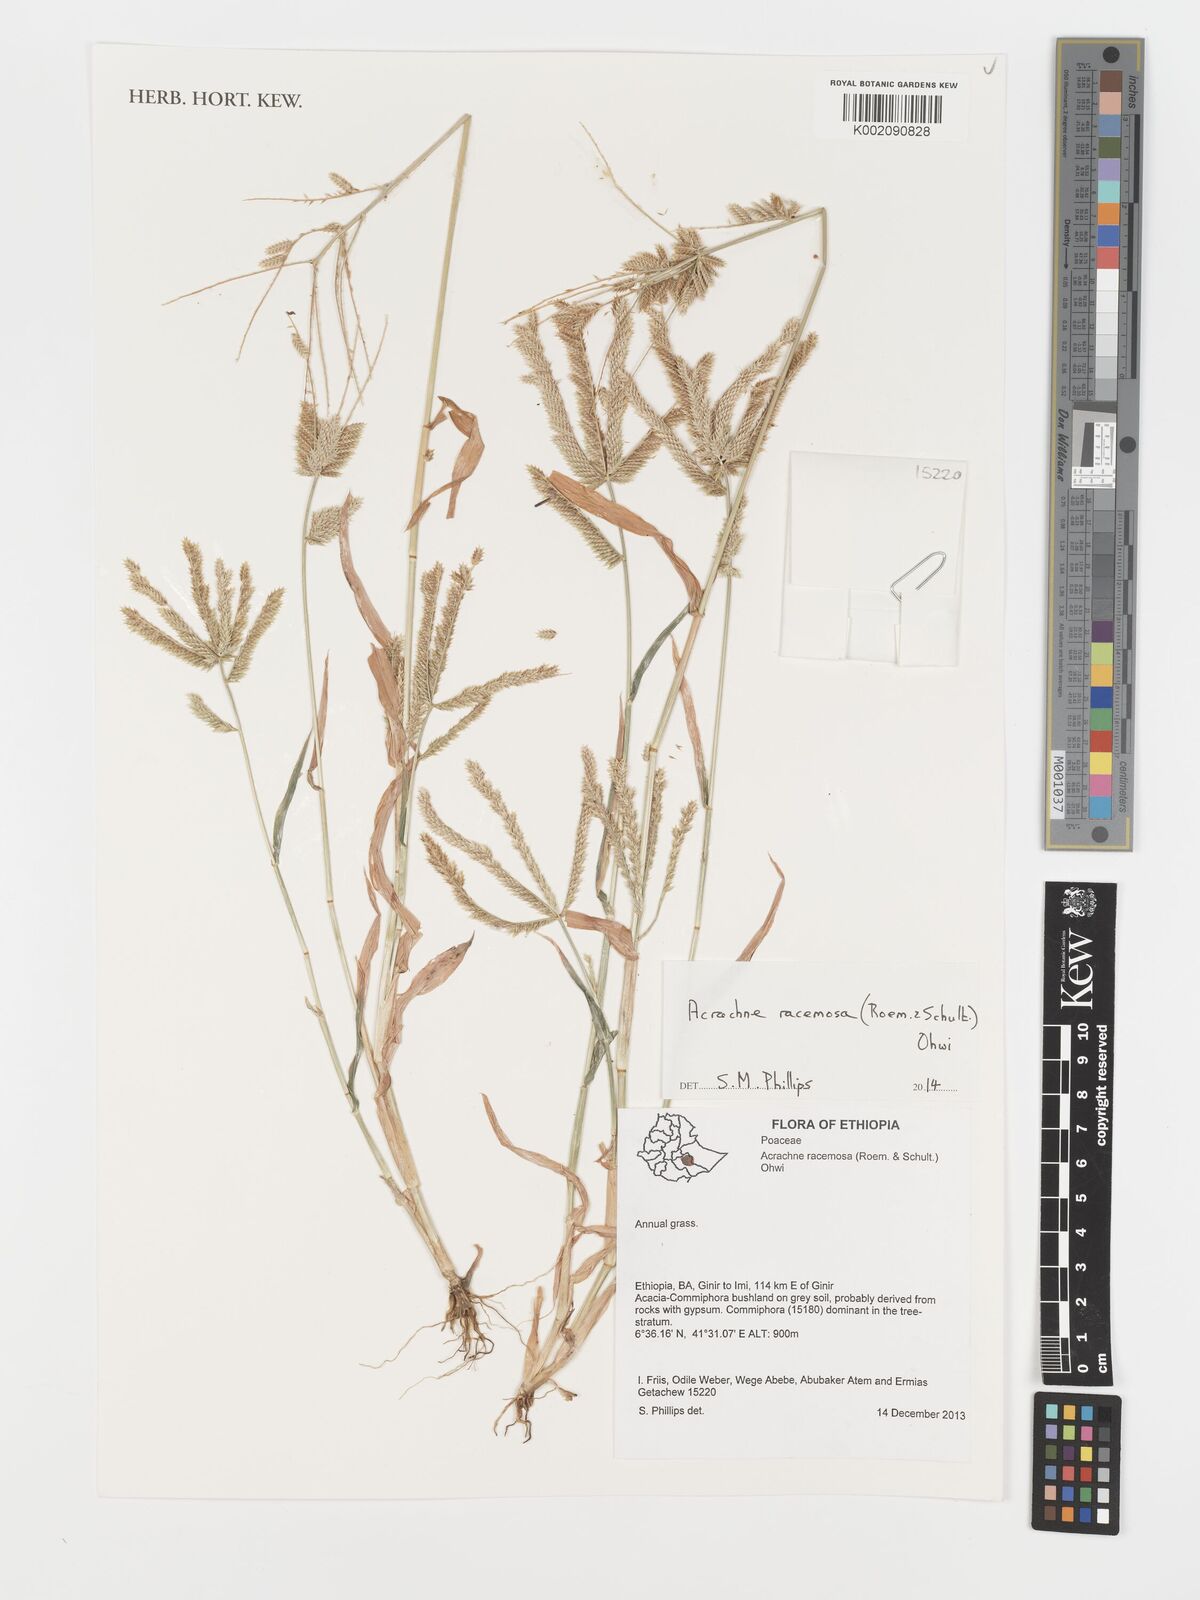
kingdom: Plantae
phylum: Tracheophyta
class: Liliopsida
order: Poales
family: Poaceae
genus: Acrachne
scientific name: Acrachne racemosa
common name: Goosegrass
